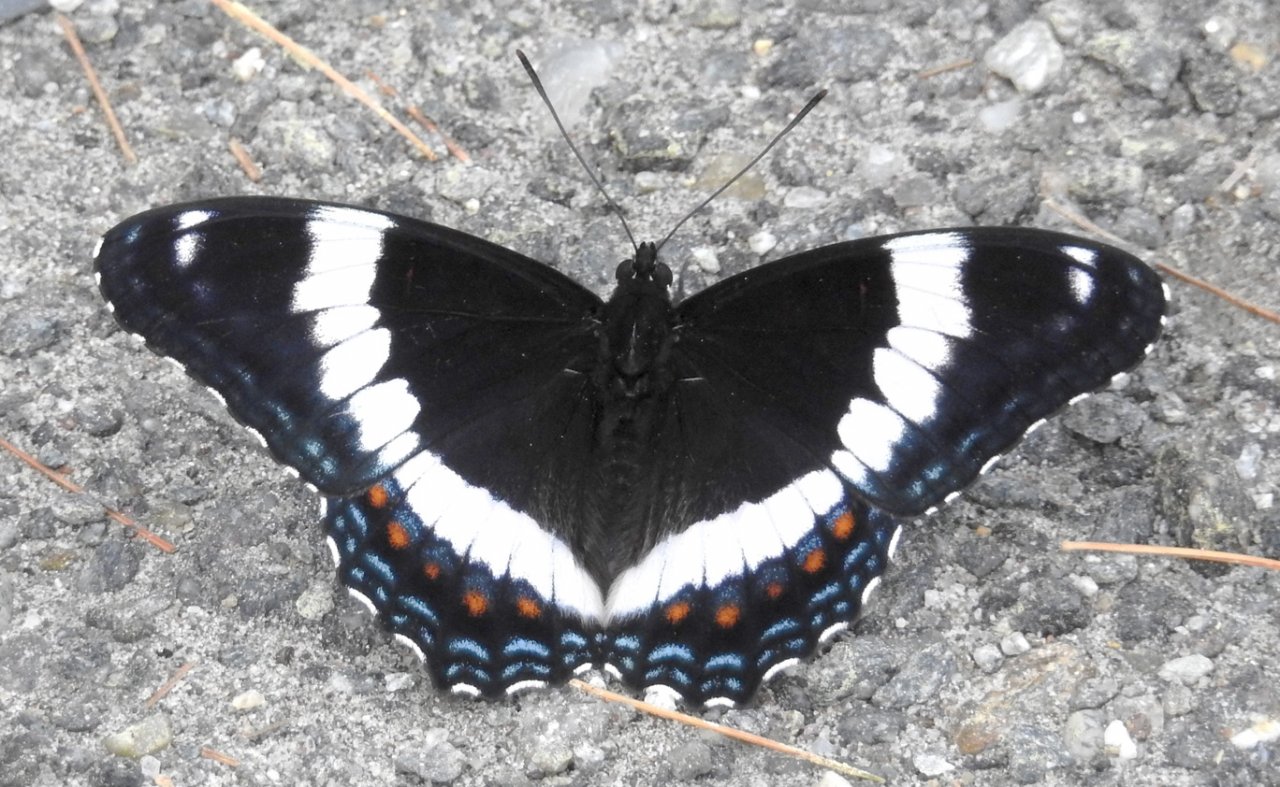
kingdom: Animalia
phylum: Arthropoda
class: Insecta
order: Lepidoptera
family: Nymphalidae
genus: Limenitis
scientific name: Limenitis arthemis
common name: Red-spotted Admiral
